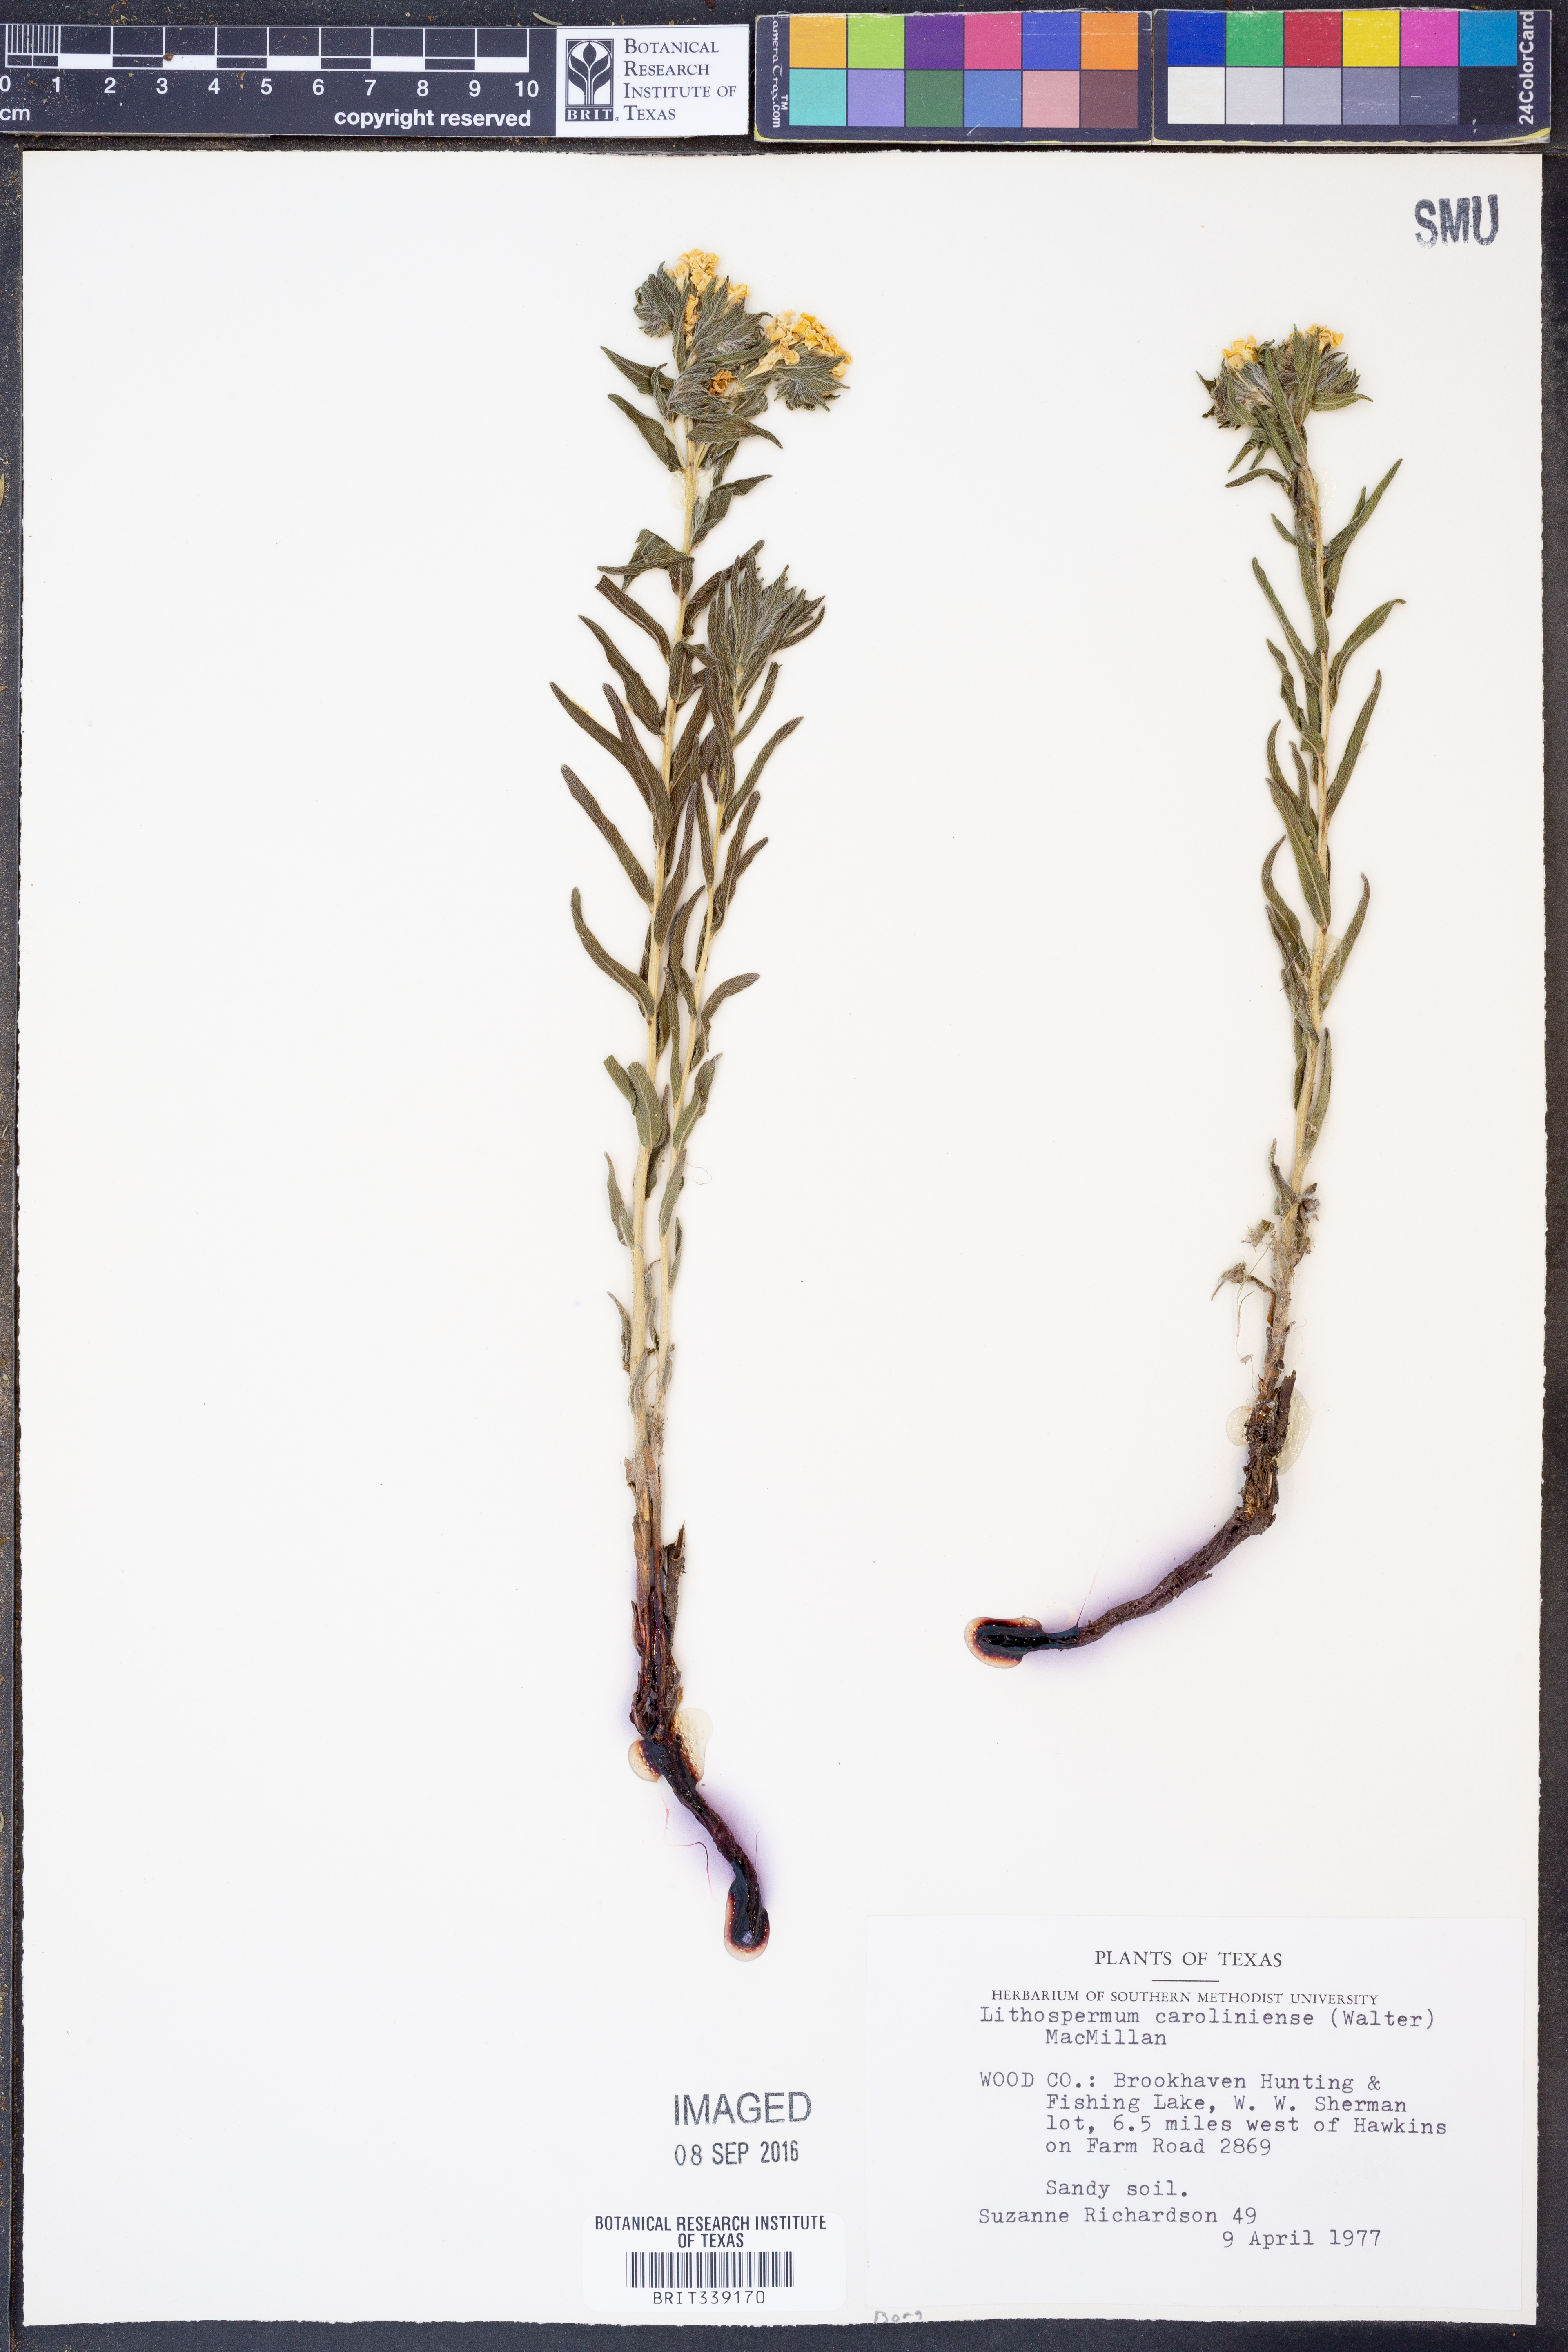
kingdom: Plantae
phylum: Tracheophyta
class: Magnoliopsida
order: Boraginales
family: Boraginaceae
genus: Lithospermum
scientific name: Lithospermum caroliniense
